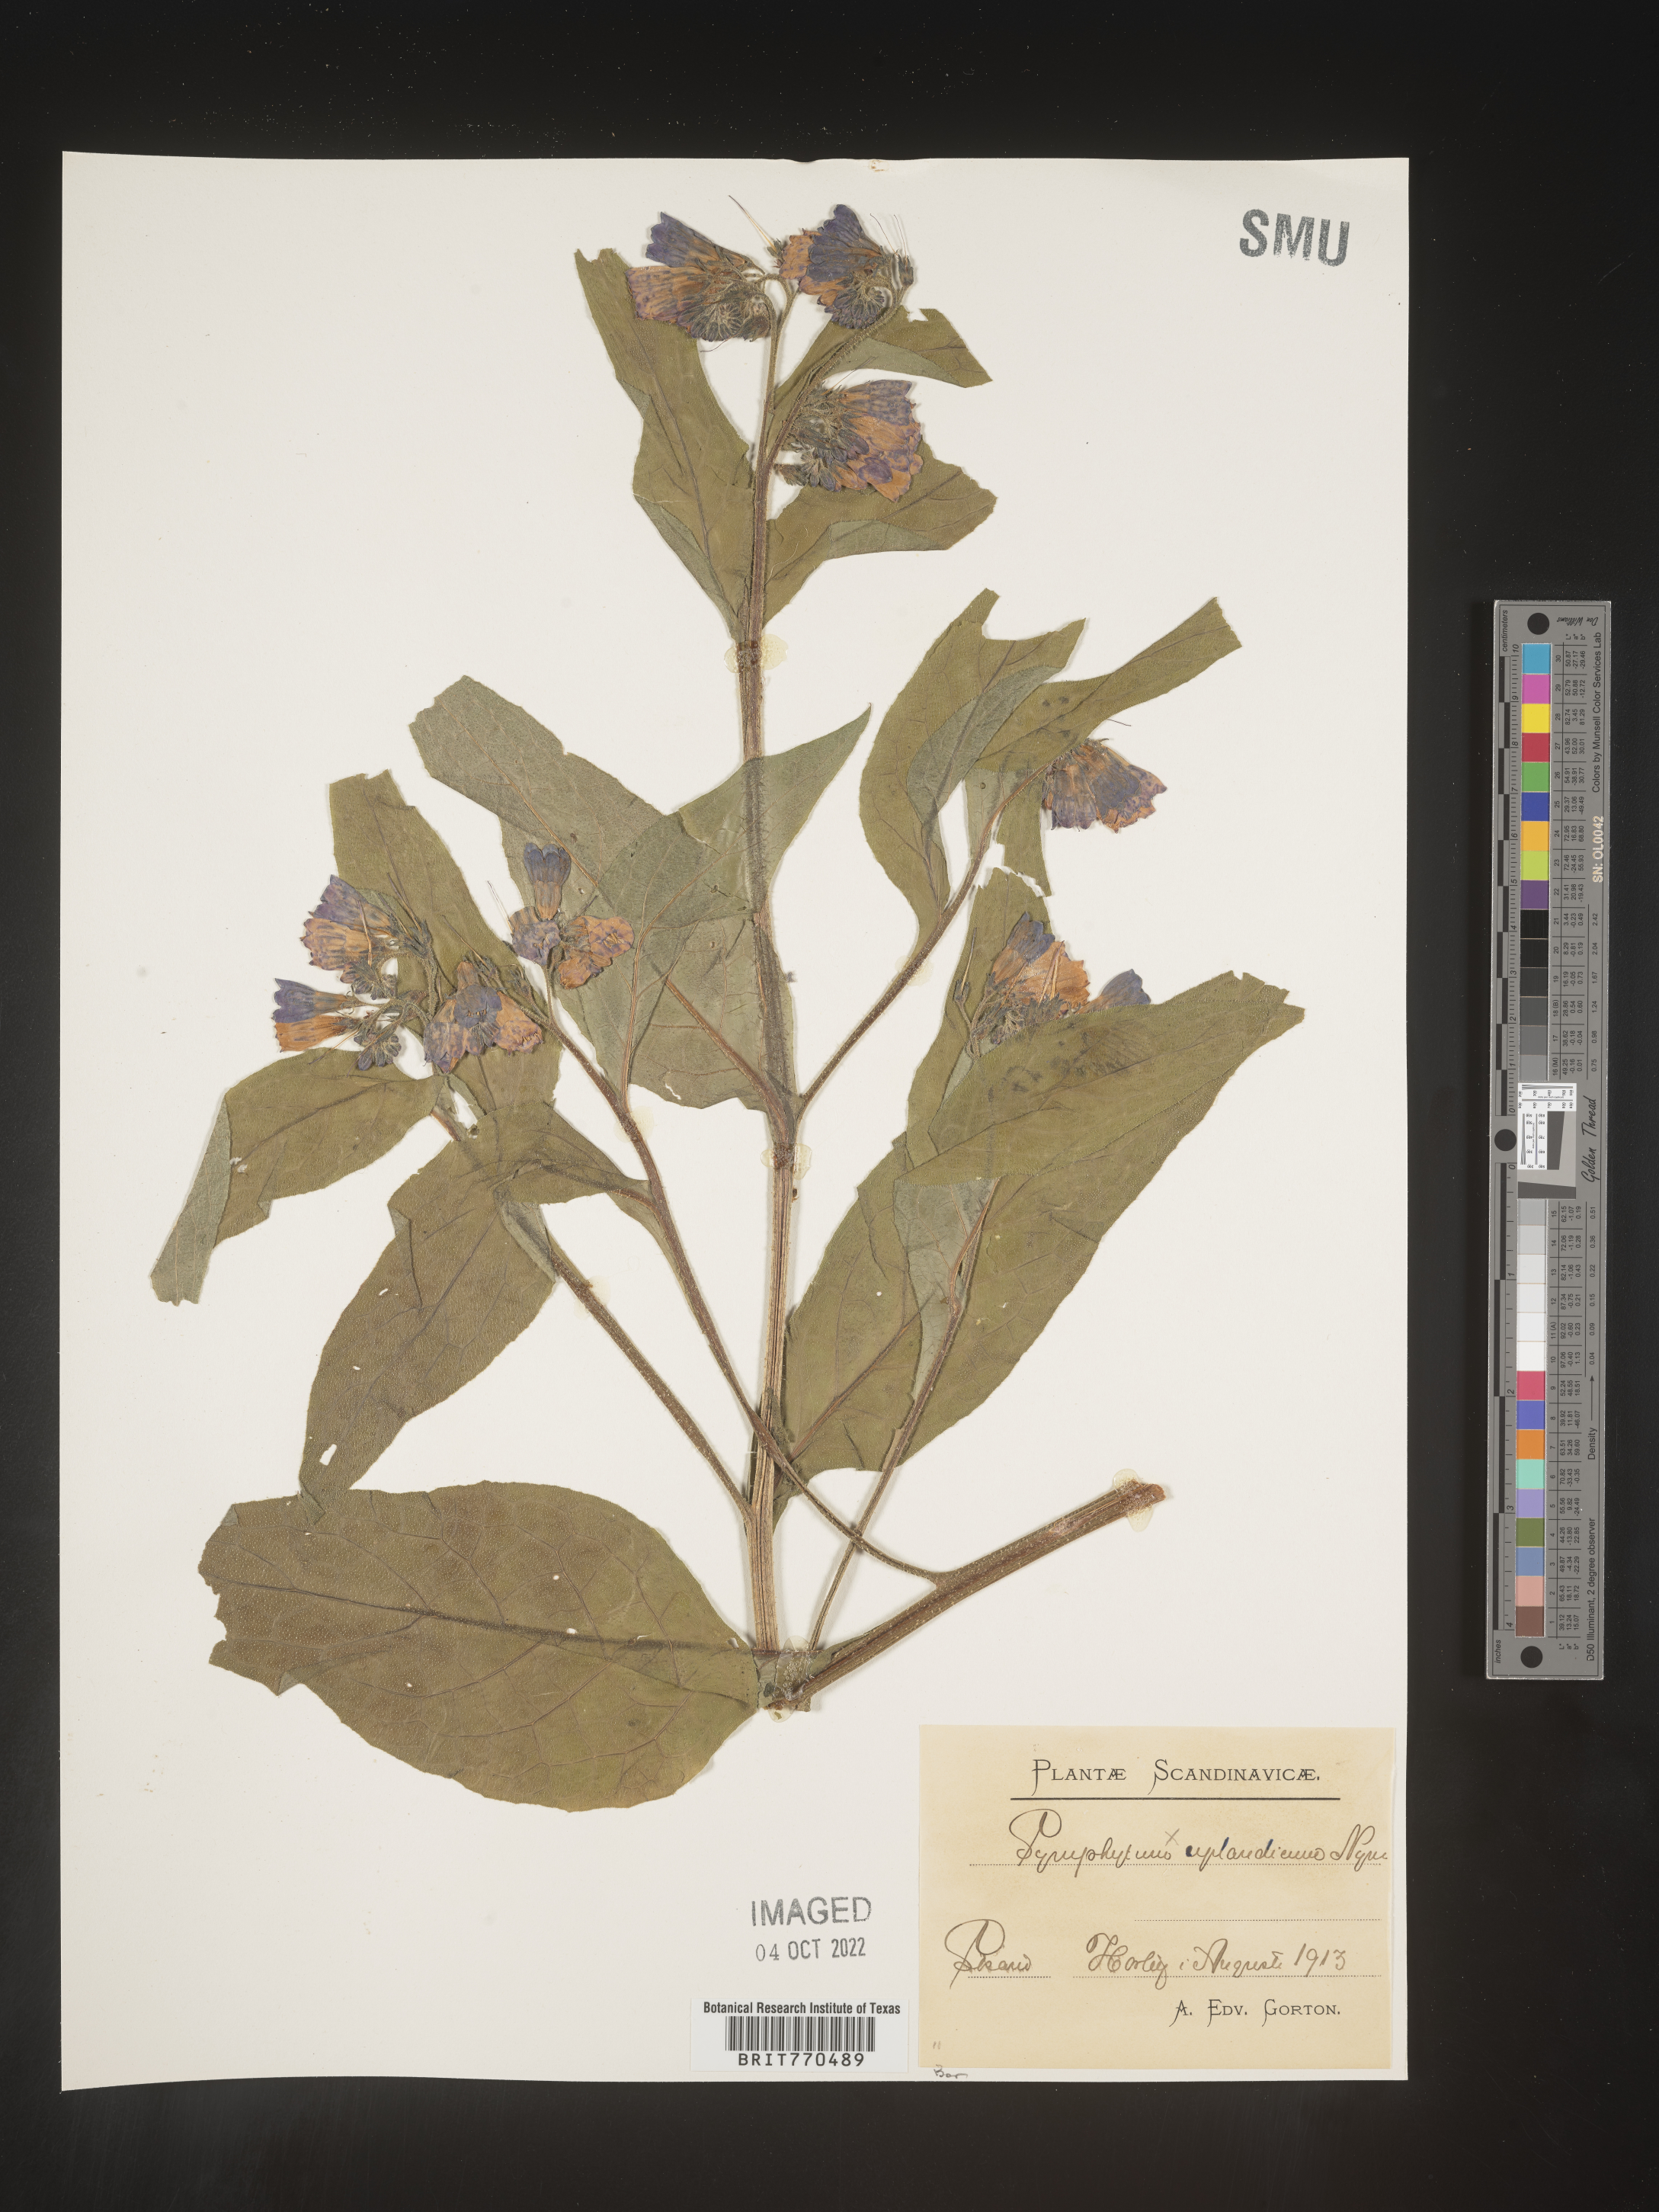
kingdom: Plantae
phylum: Tracheophyta
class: Magnoliopsida
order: Boraginales
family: Boraginaceae
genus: Symphytum
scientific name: Symphytum
